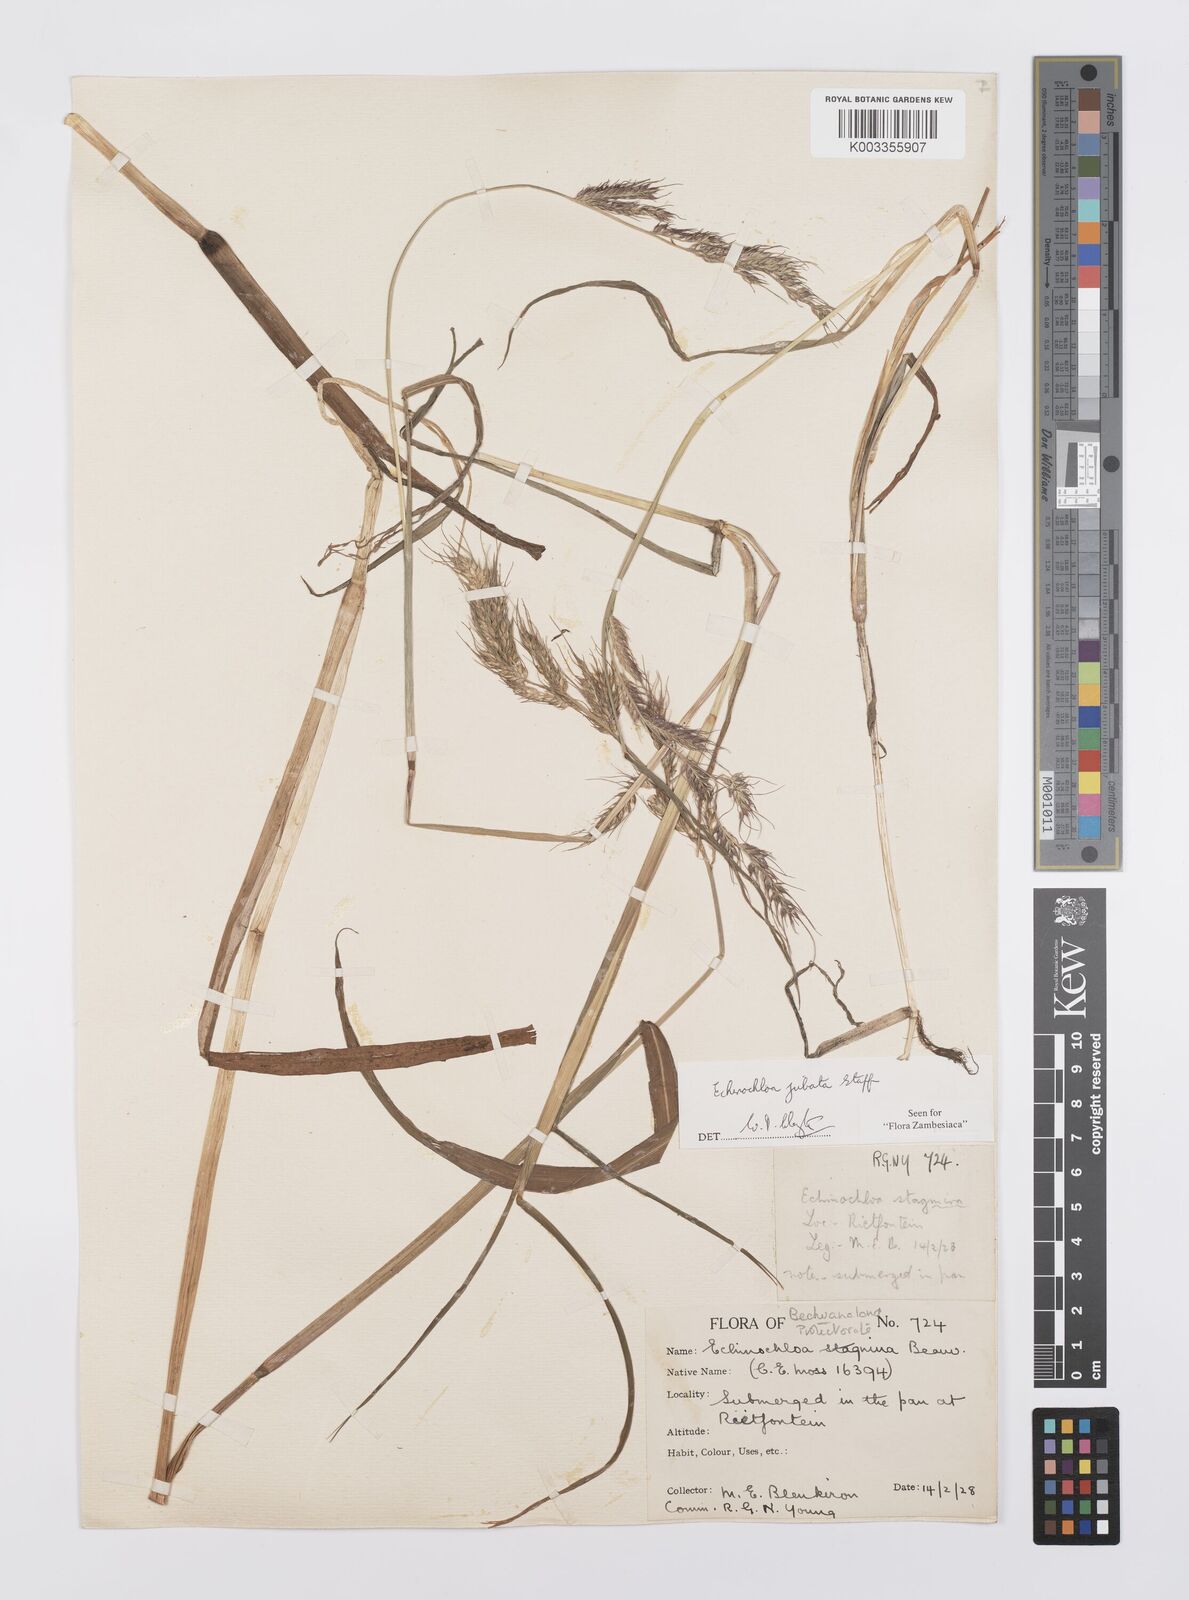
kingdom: Plantae
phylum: Tracheophyta
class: Liliopsida
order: Poales
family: Poaceae
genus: Echinochloa
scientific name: Echinochloa jubata
